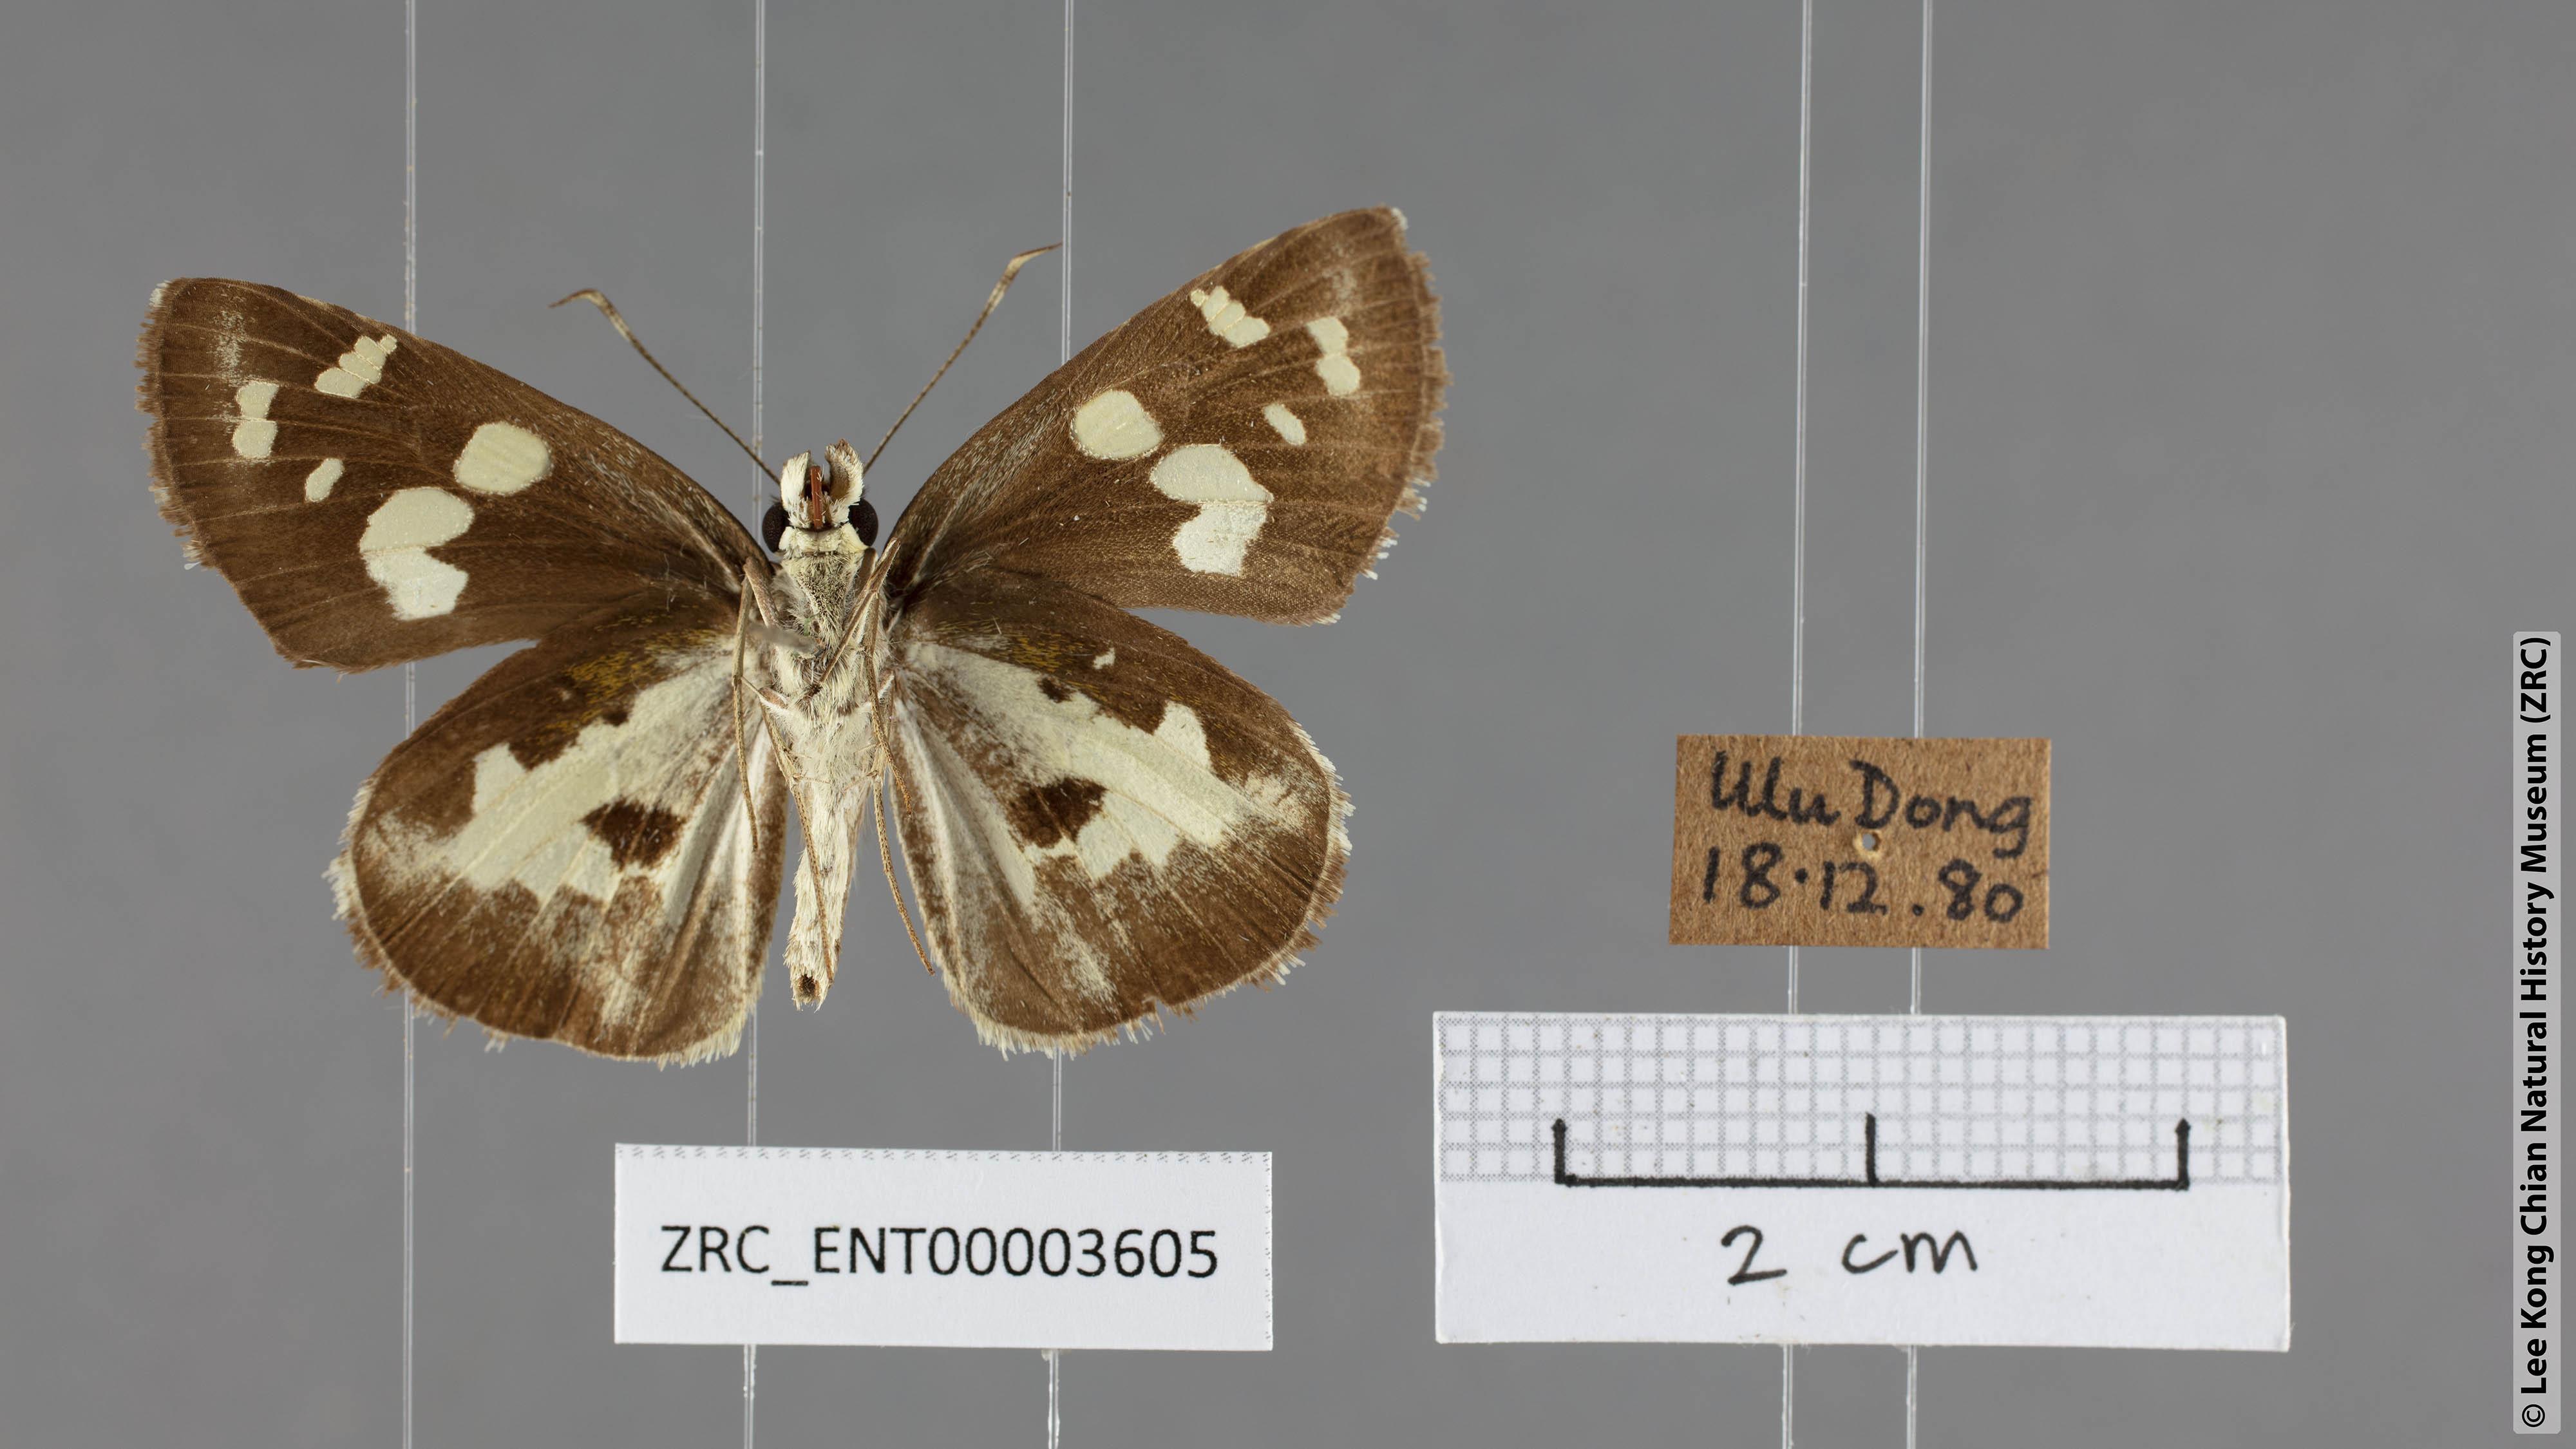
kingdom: Animalia
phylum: Arthropoda
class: Insecta
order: Lepidoptera
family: Hesperiidae
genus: Udaspes
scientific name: Udaspes folus
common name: Grass demon
